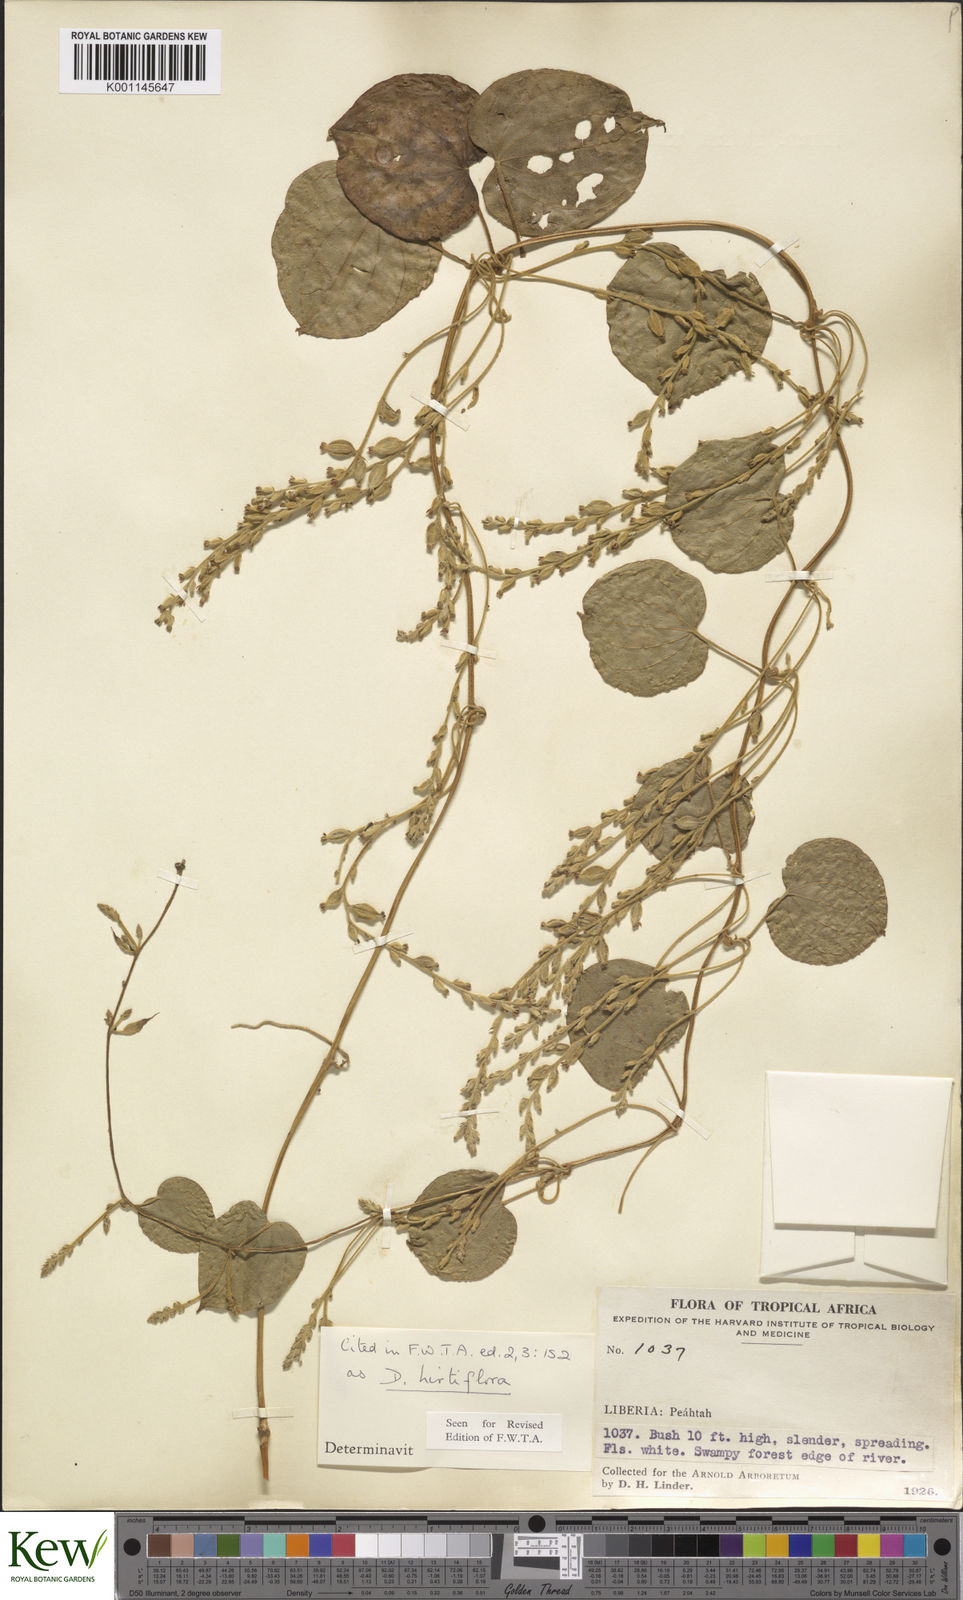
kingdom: Plantae
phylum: Tracheophyta
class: Liliopsida
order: Dioscoreales
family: Dioscoreaceae
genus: Dioscorea
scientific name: Dioscorea hirtiflora
